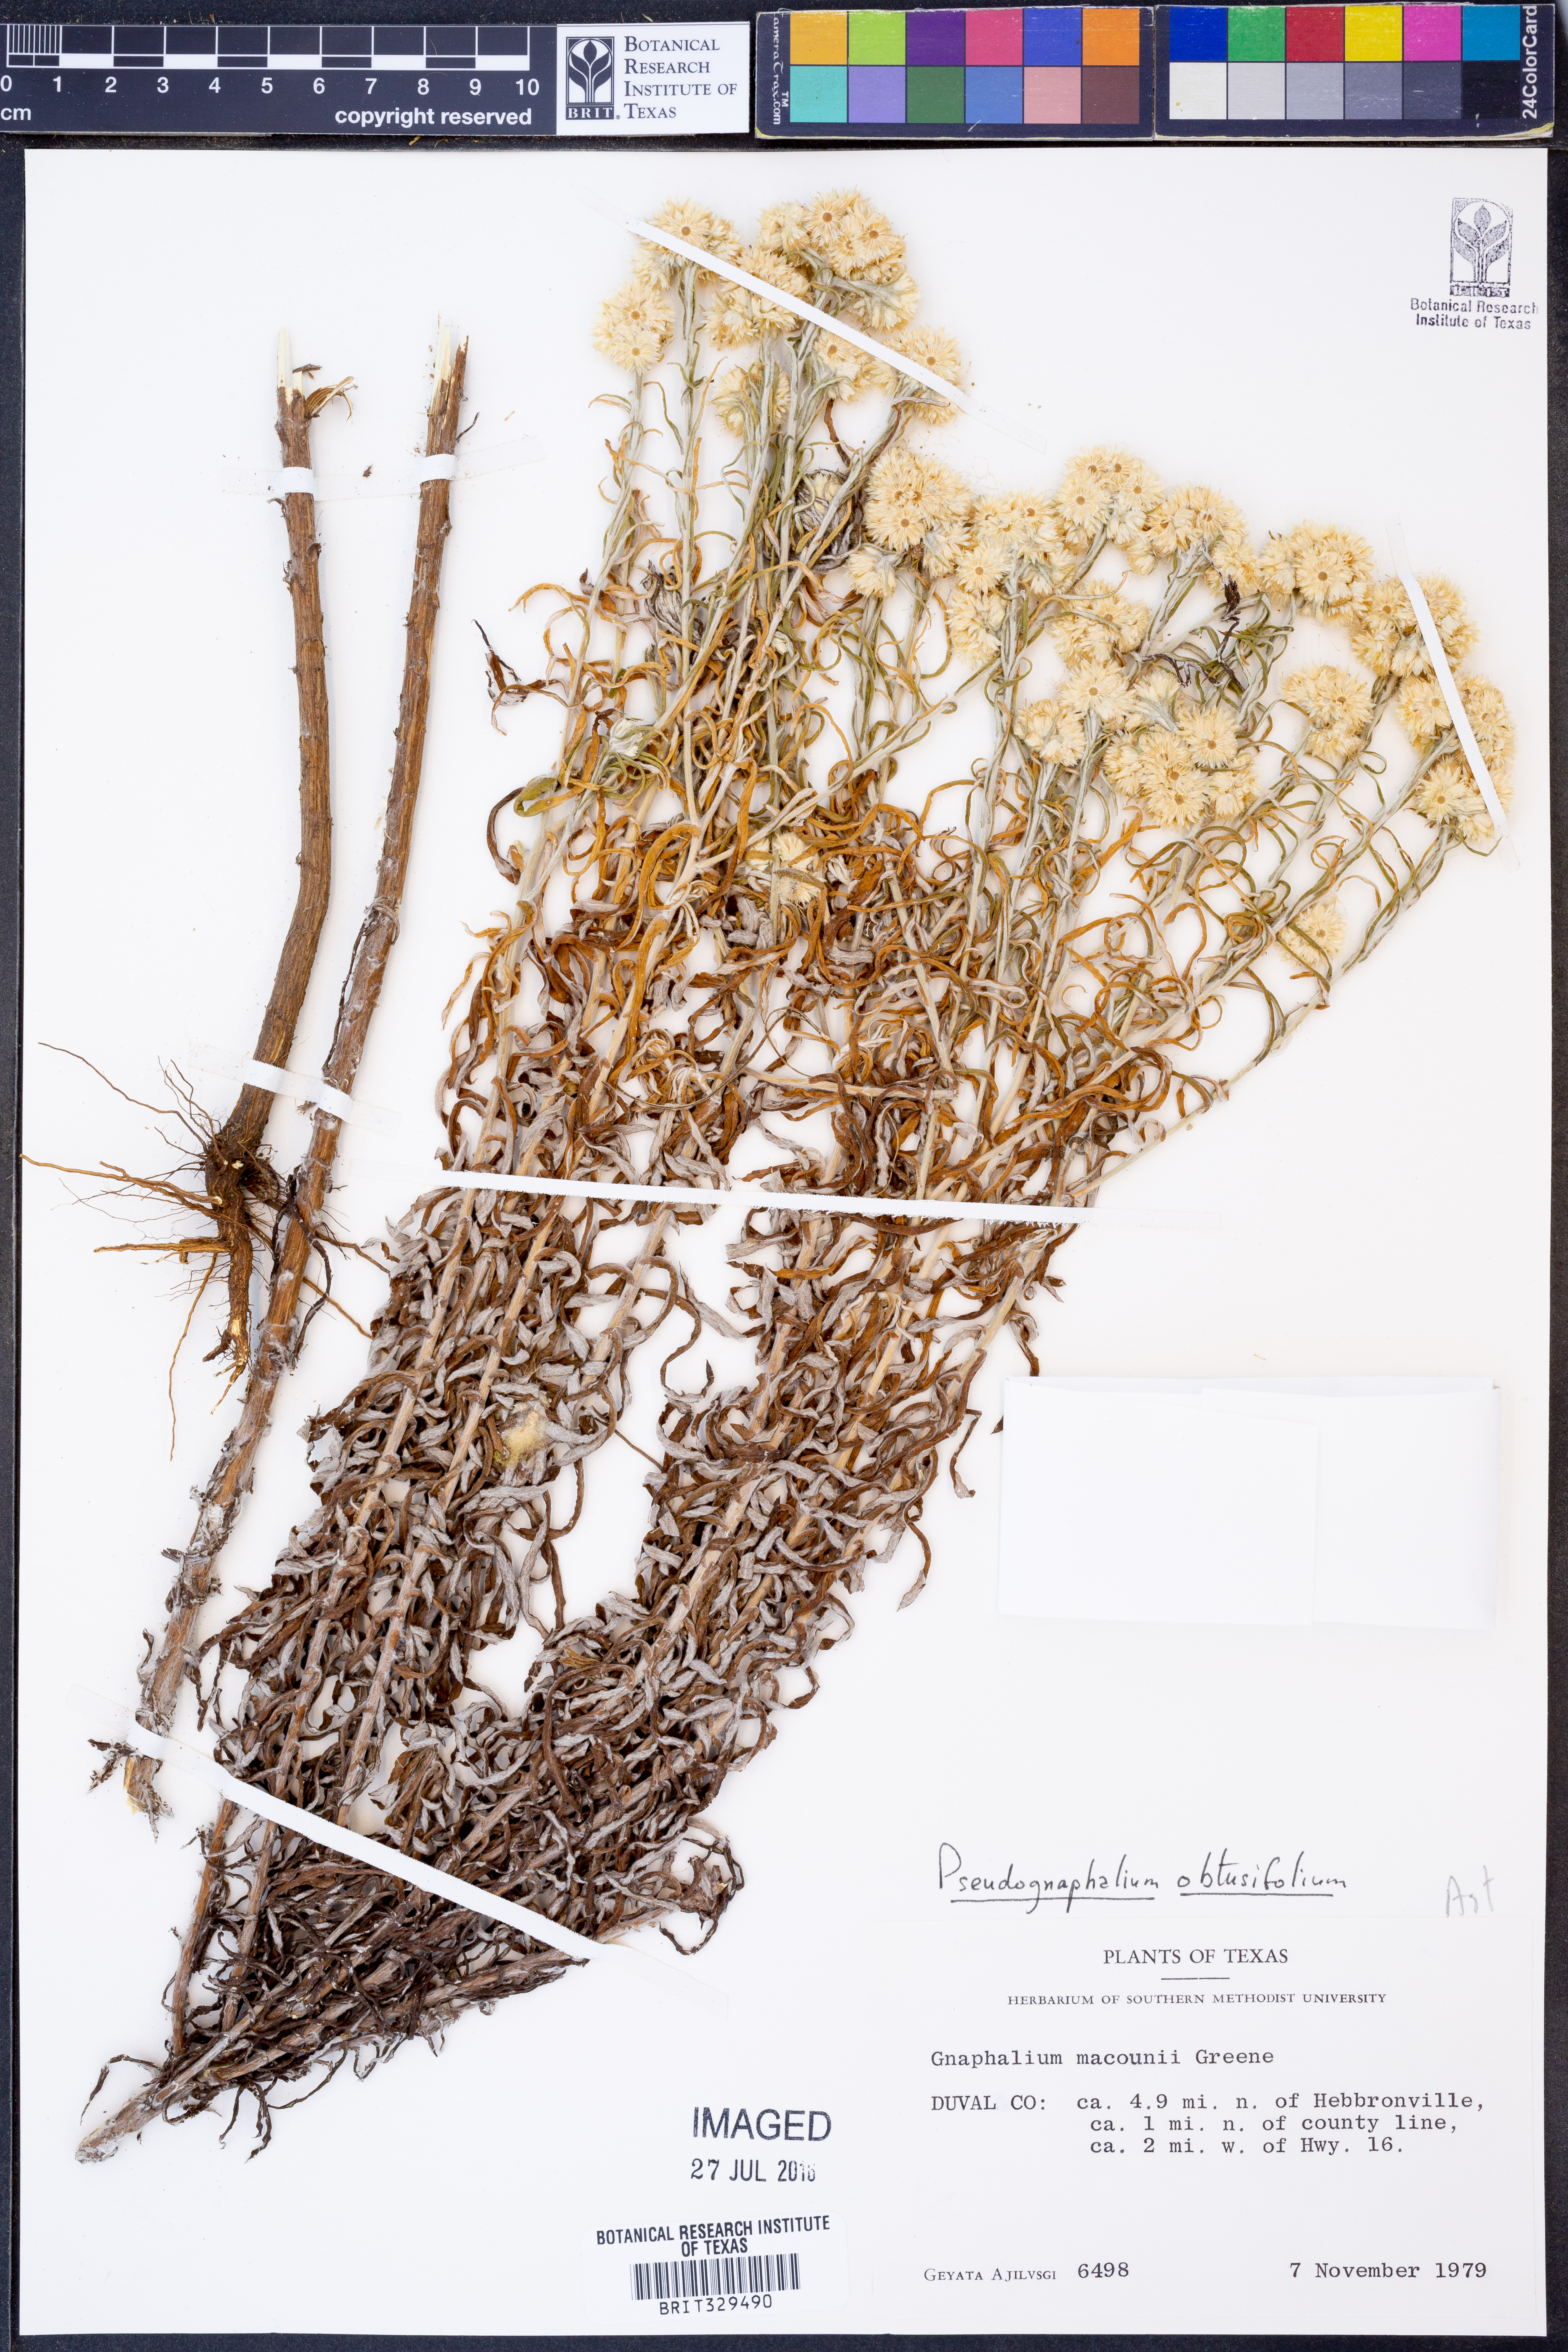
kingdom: Plantae
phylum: Tracheophyta
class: Magnoliopsida
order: Asterales
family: Asteraceae
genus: Pseudognaphalium
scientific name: Pseudognaphalium obtusifolium
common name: Eastern rabbit-tobacco
